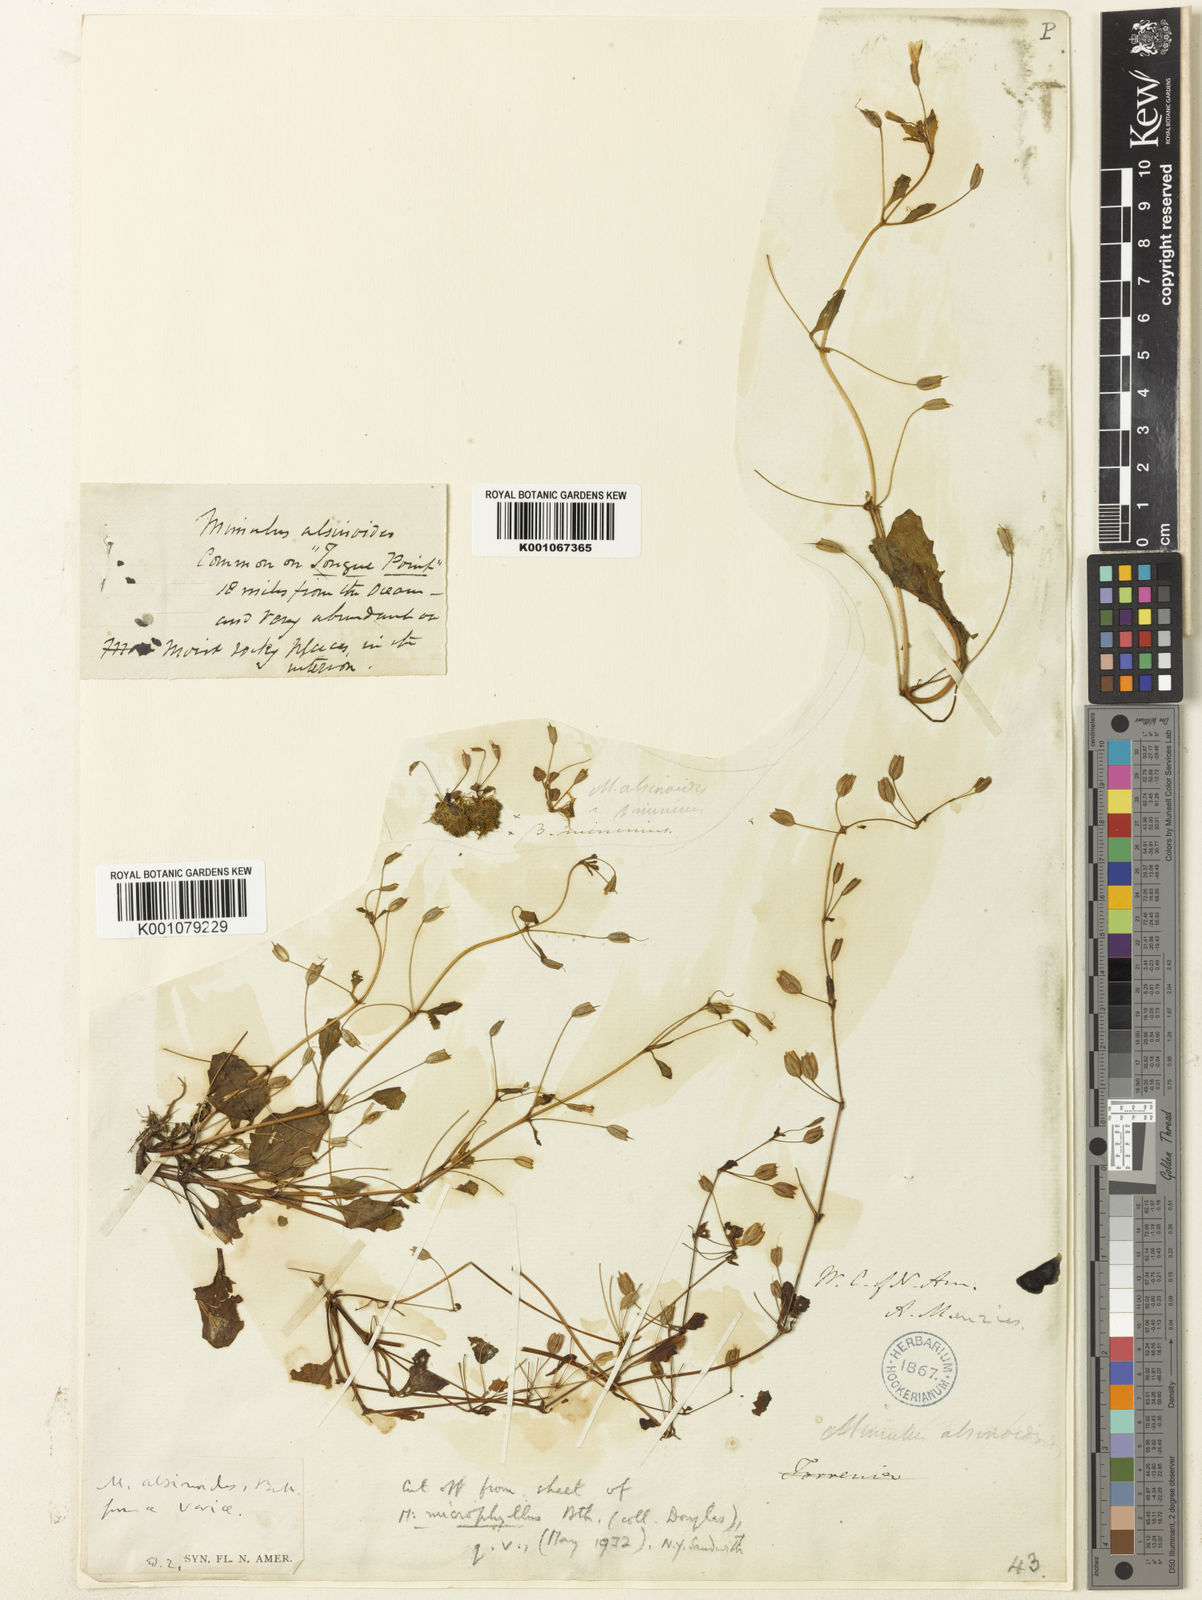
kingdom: Plantae
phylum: Tracheophyta
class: Magnoliopsida
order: Lamiales
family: Phrymaceae
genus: Mimulus
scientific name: Mimulus
